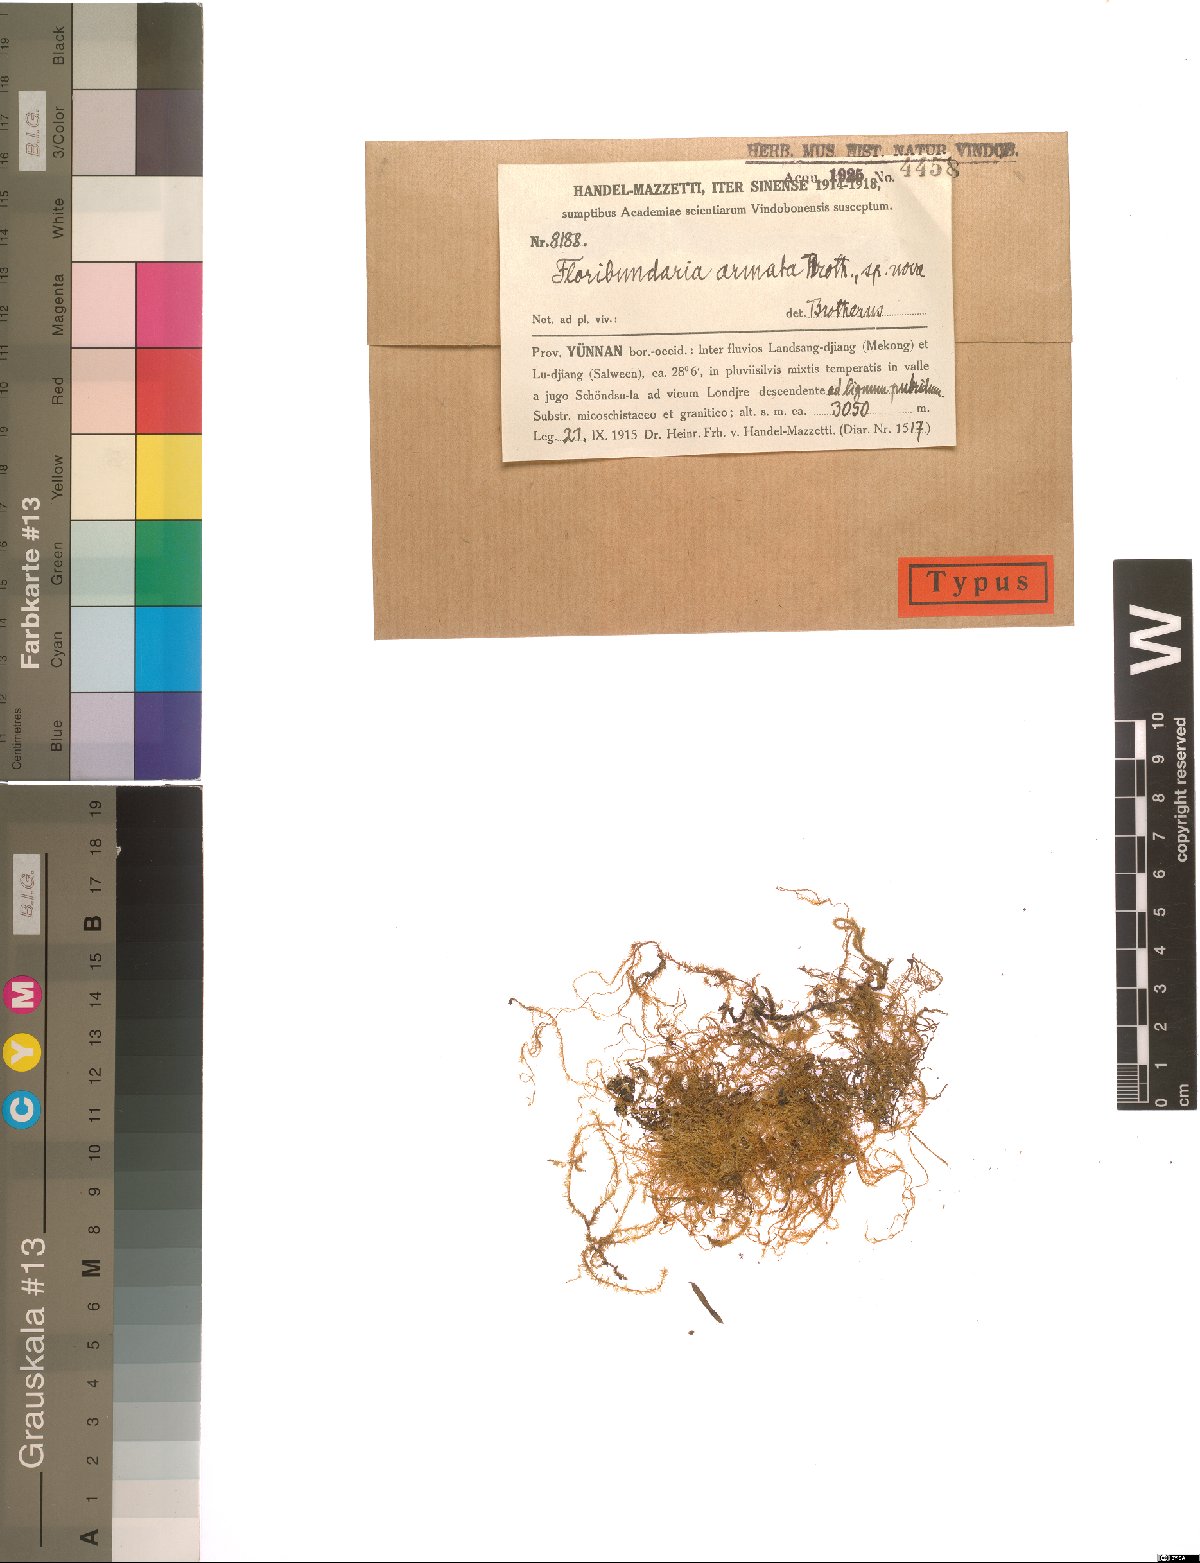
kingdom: Plantae
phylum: Bryophyta
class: Bryopsida
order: Hypnales
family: Meteoriaceae
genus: Floribundaria
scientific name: Floribundaria setschwanica
